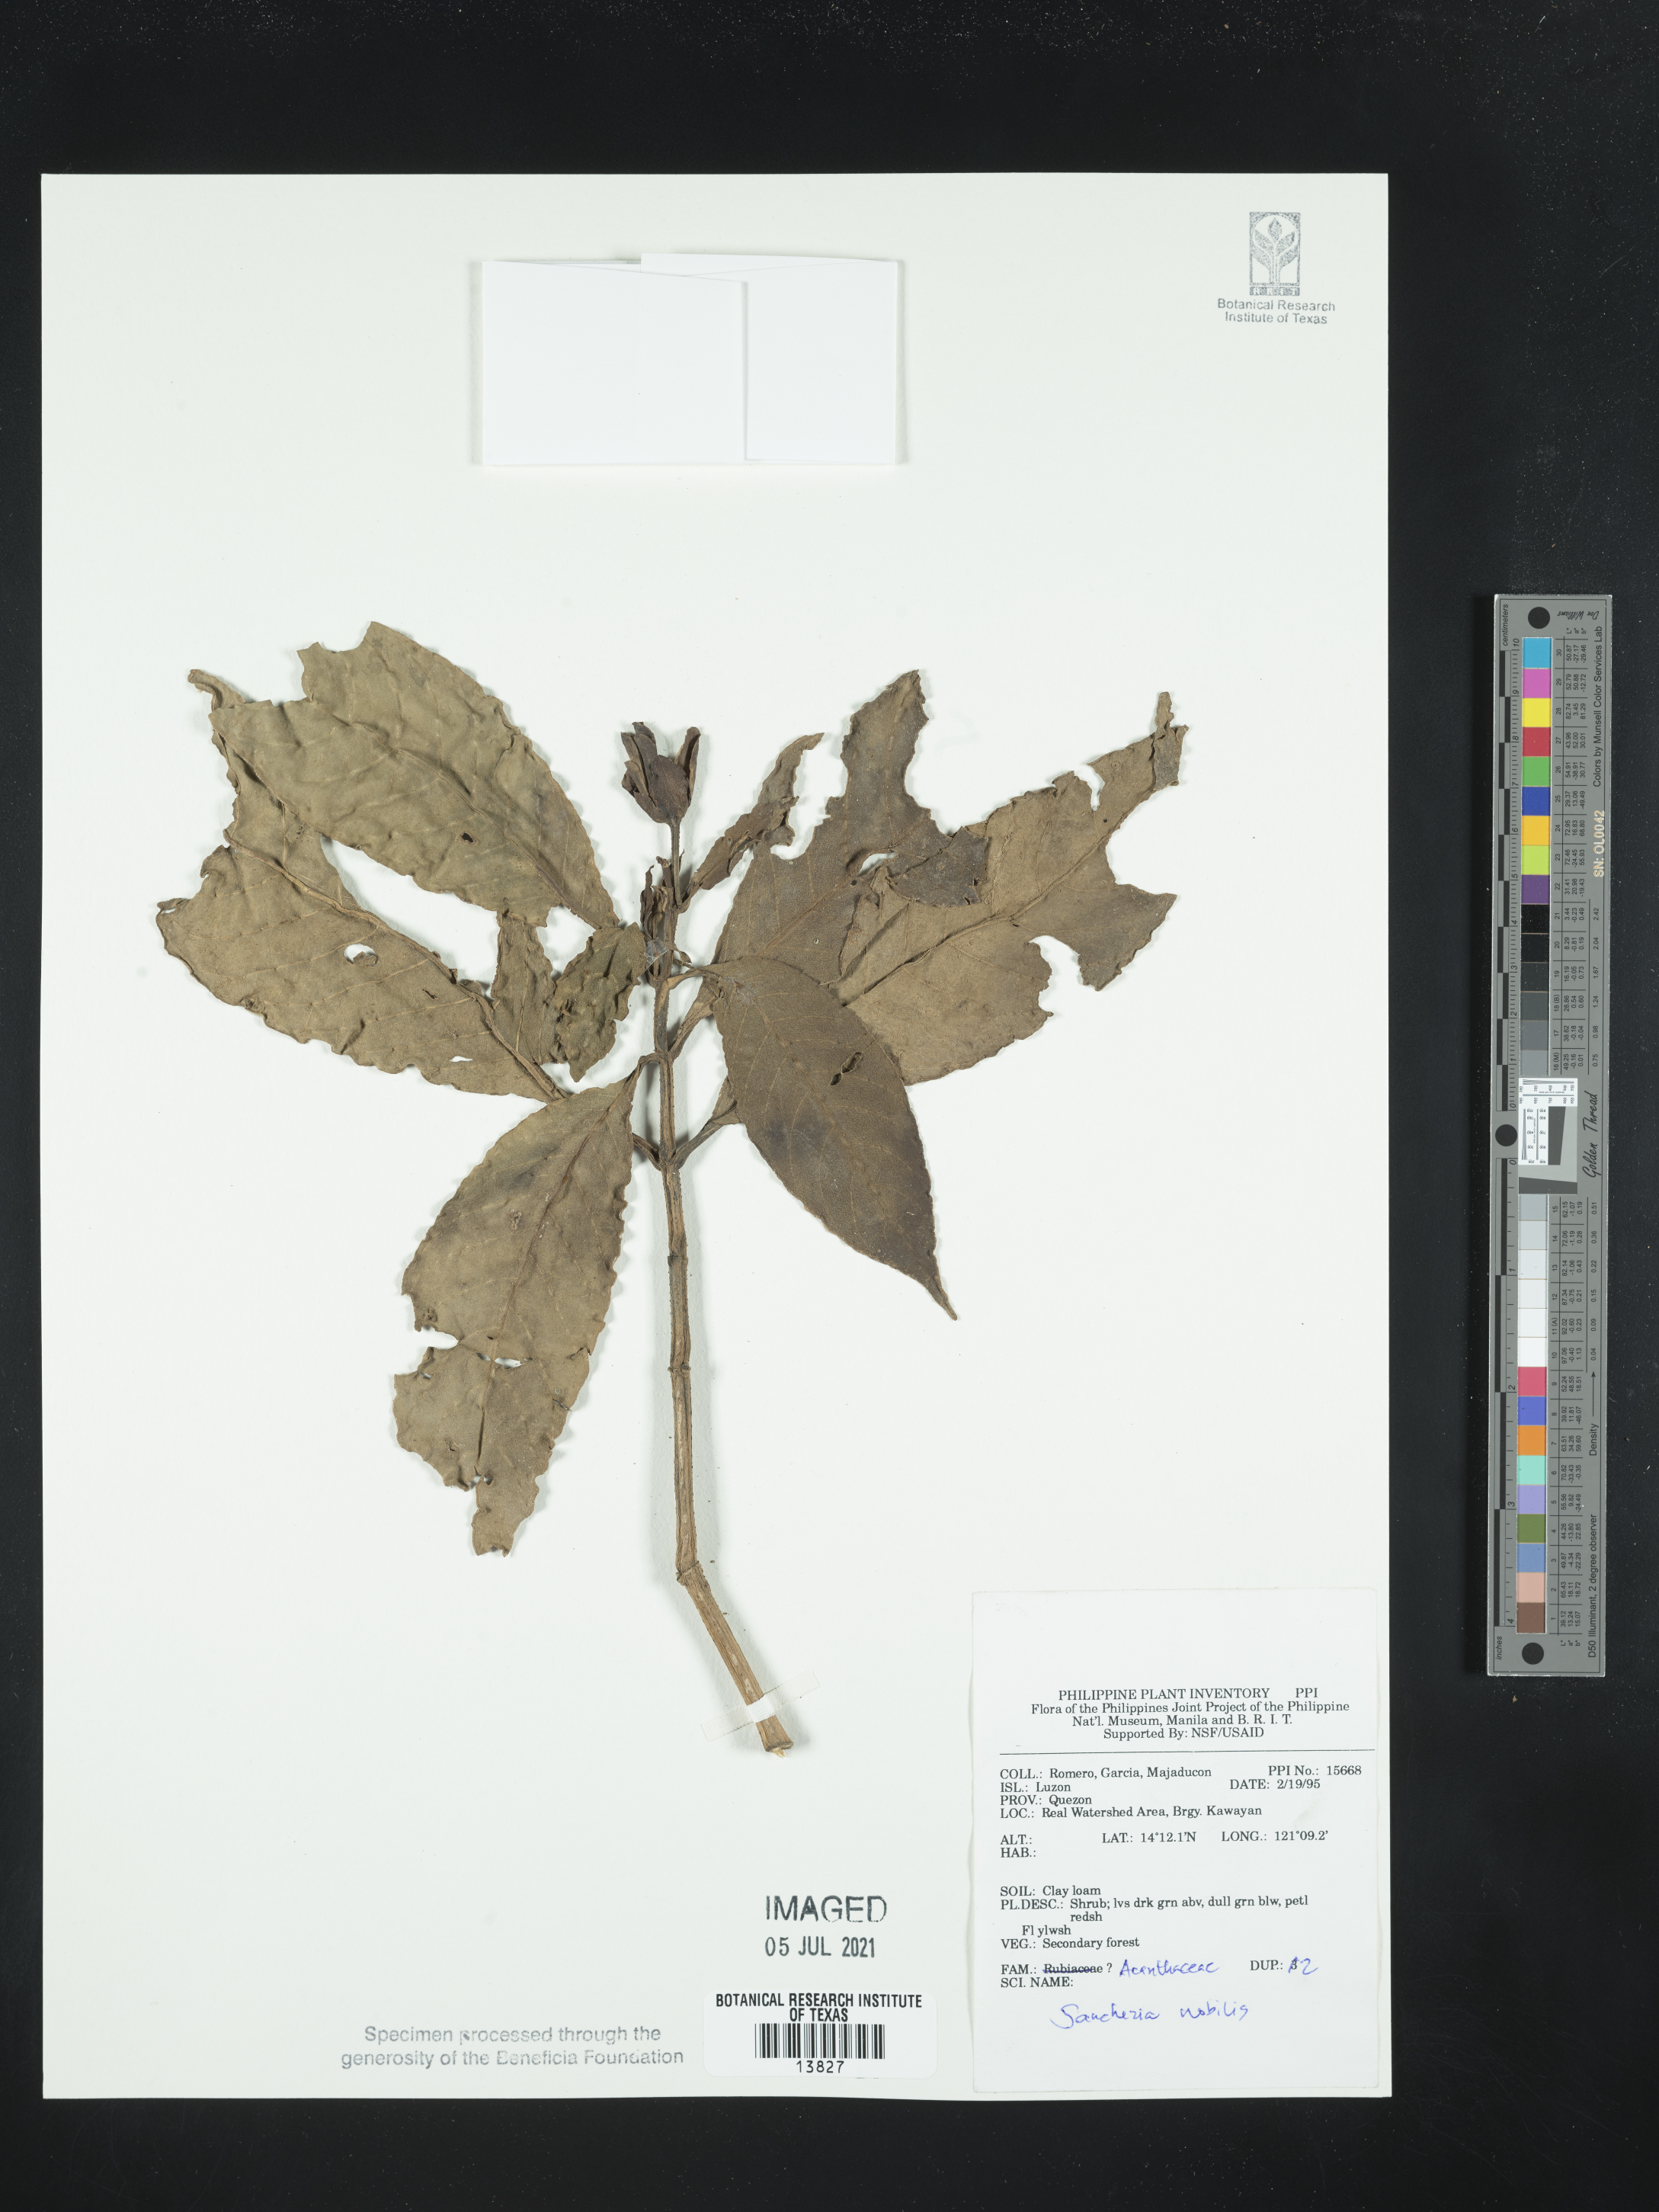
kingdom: Plantae
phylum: Tracheophyta
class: Magnoliopsida
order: Lamiales
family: Acanthaceae
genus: Sanchezia
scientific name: Sanchezia oblonga
